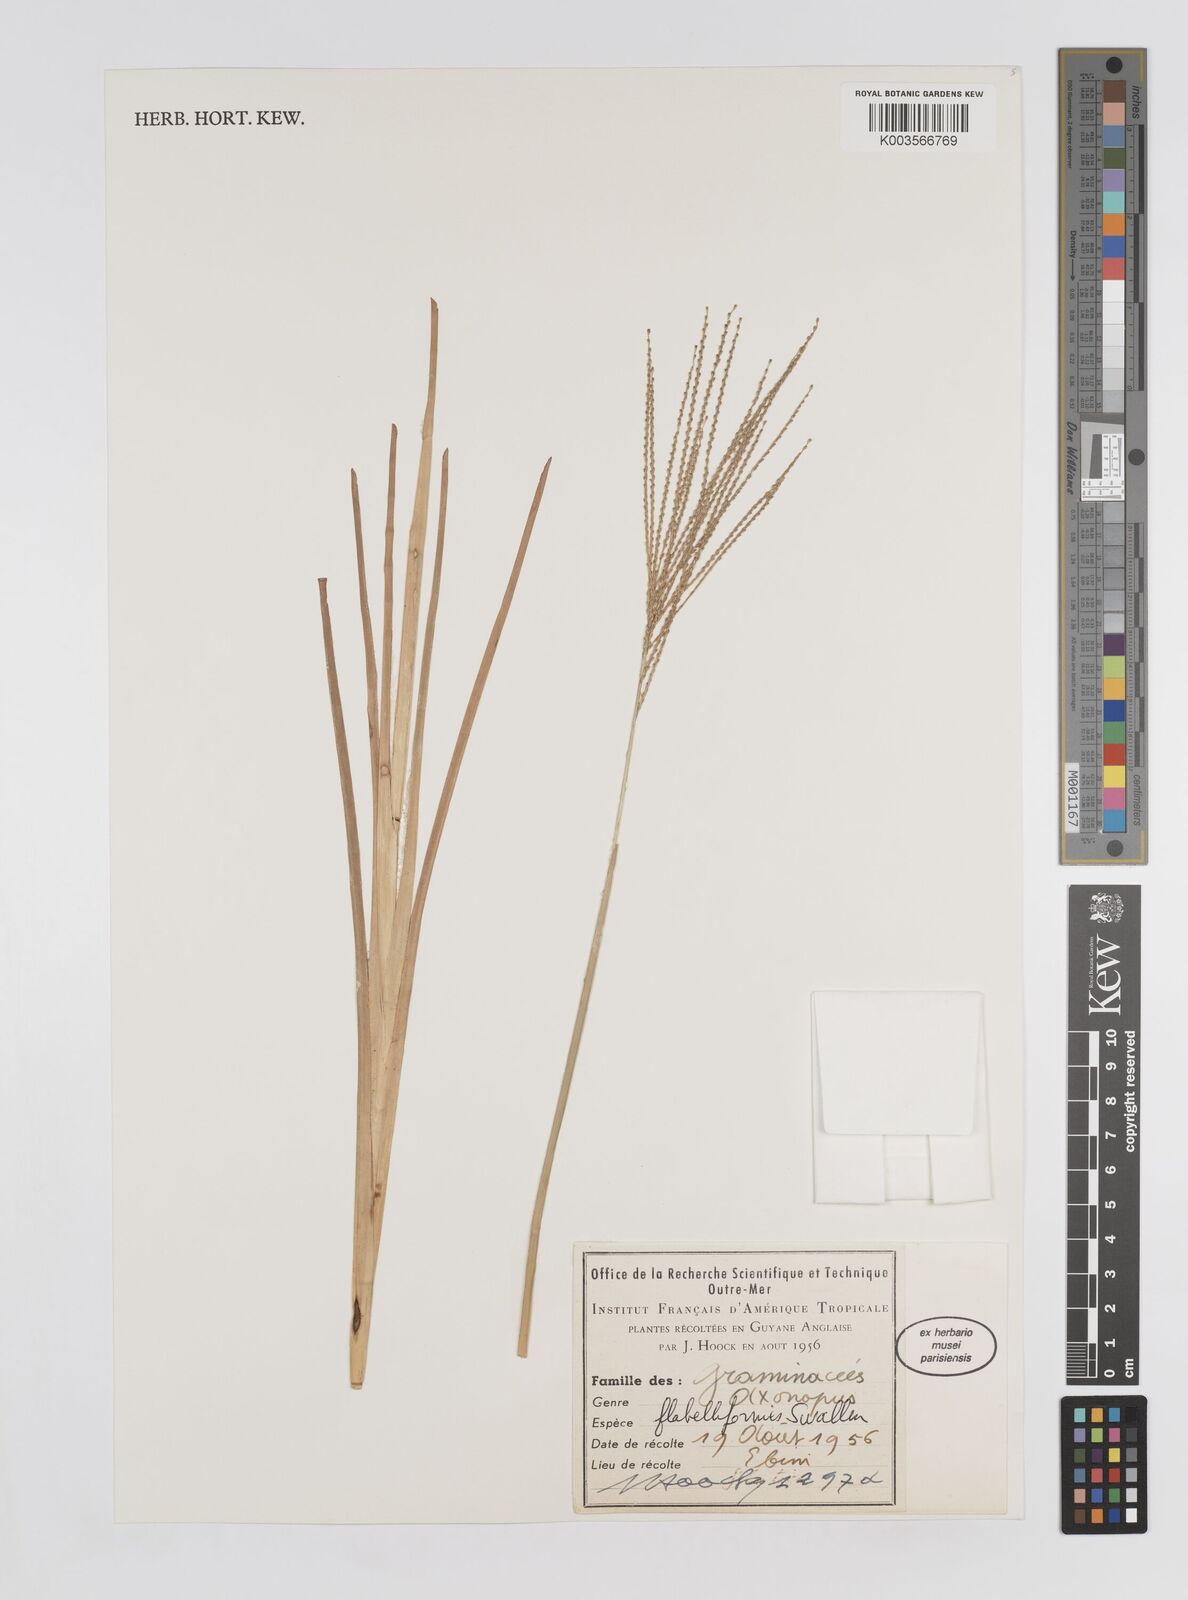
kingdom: Plantae
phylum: Tracheophyta
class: Liliopsida
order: Poales
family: Poaceae
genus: Axonopus
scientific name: Axonopus flabelliformis
